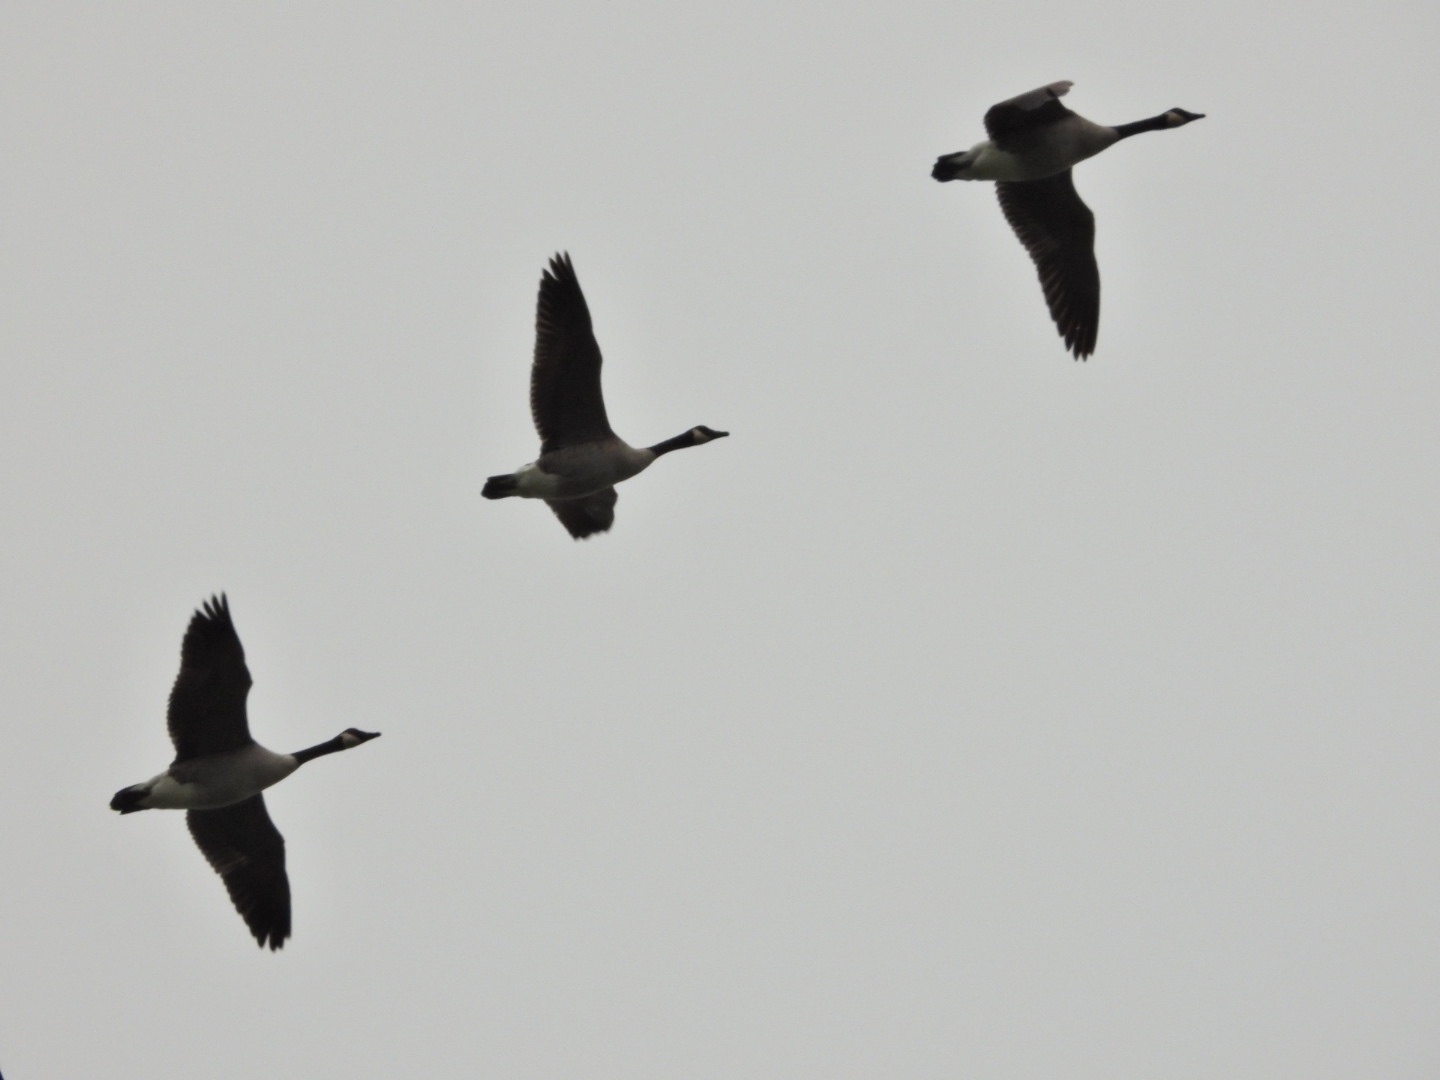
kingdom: Animalia
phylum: Chordata
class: Aves
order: Anseriformes
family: Anatidae
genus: Branta
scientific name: Branta canadensis
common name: Canadagås
